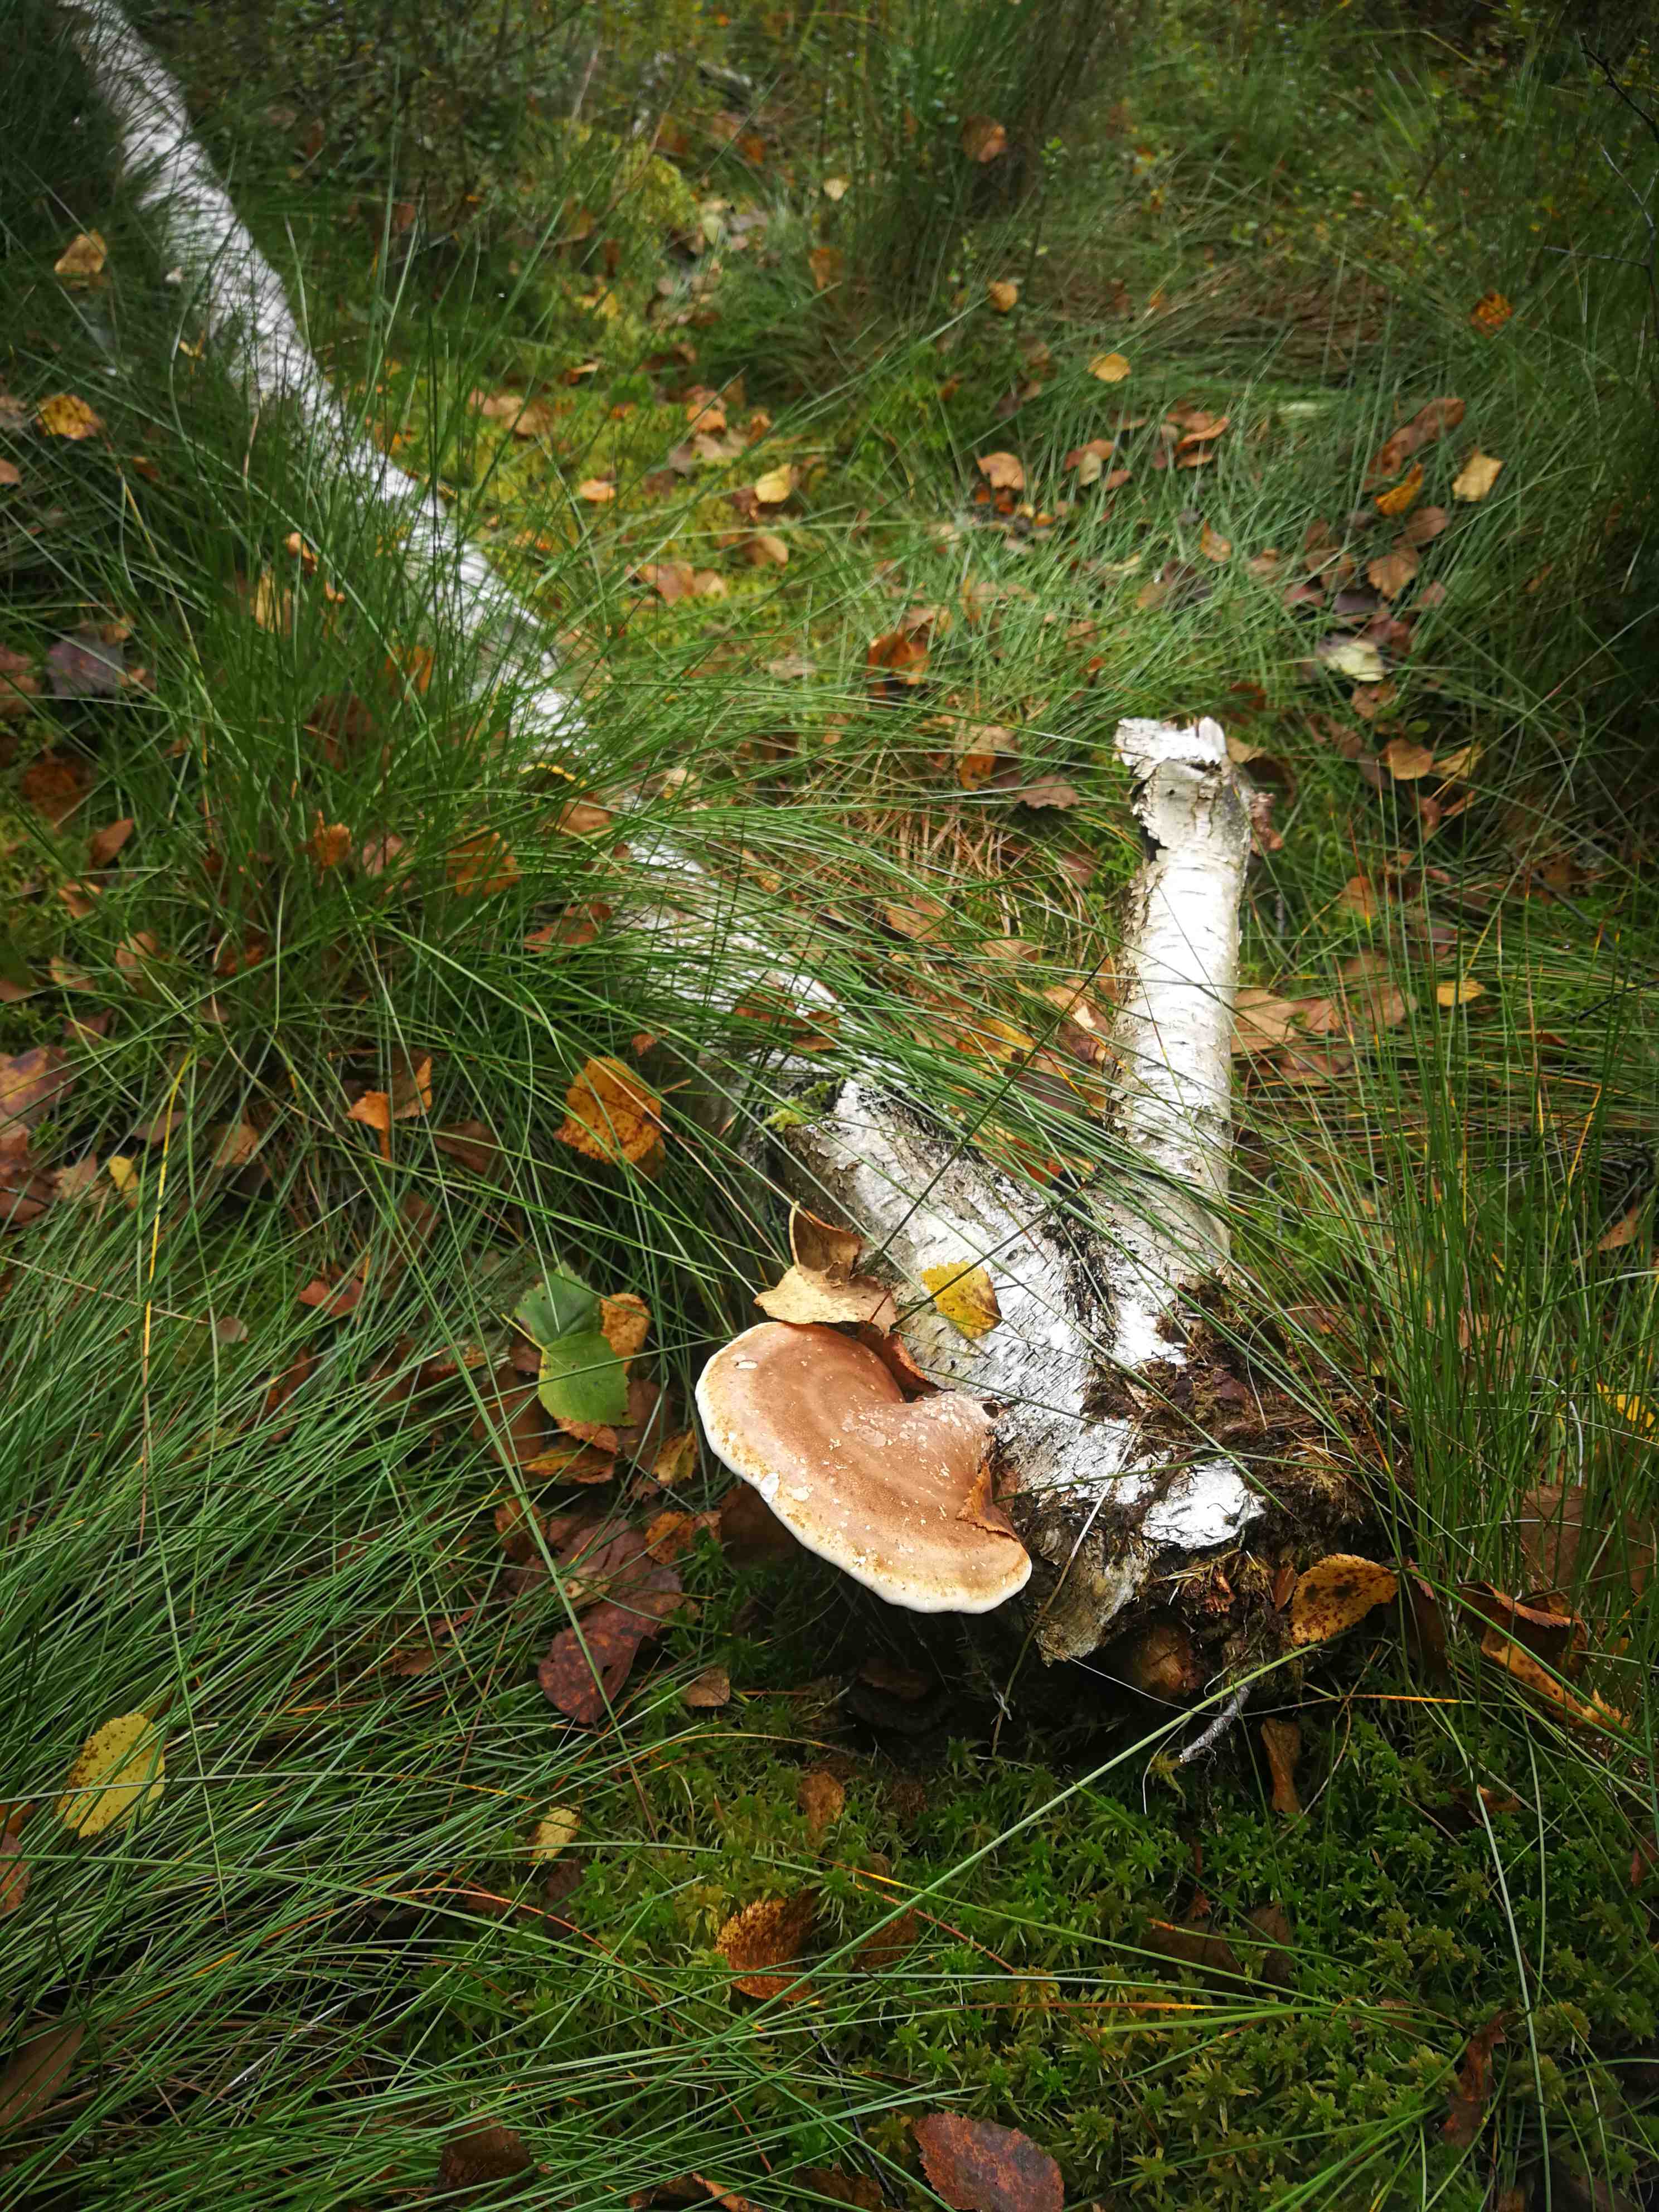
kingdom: Fungi
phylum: Basidiomycota
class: Agaricomycetes
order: Polyporales
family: Fomitopsidaceae
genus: Fomitopsis
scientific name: Fomitopsis betulina
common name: birkeporesvamp
